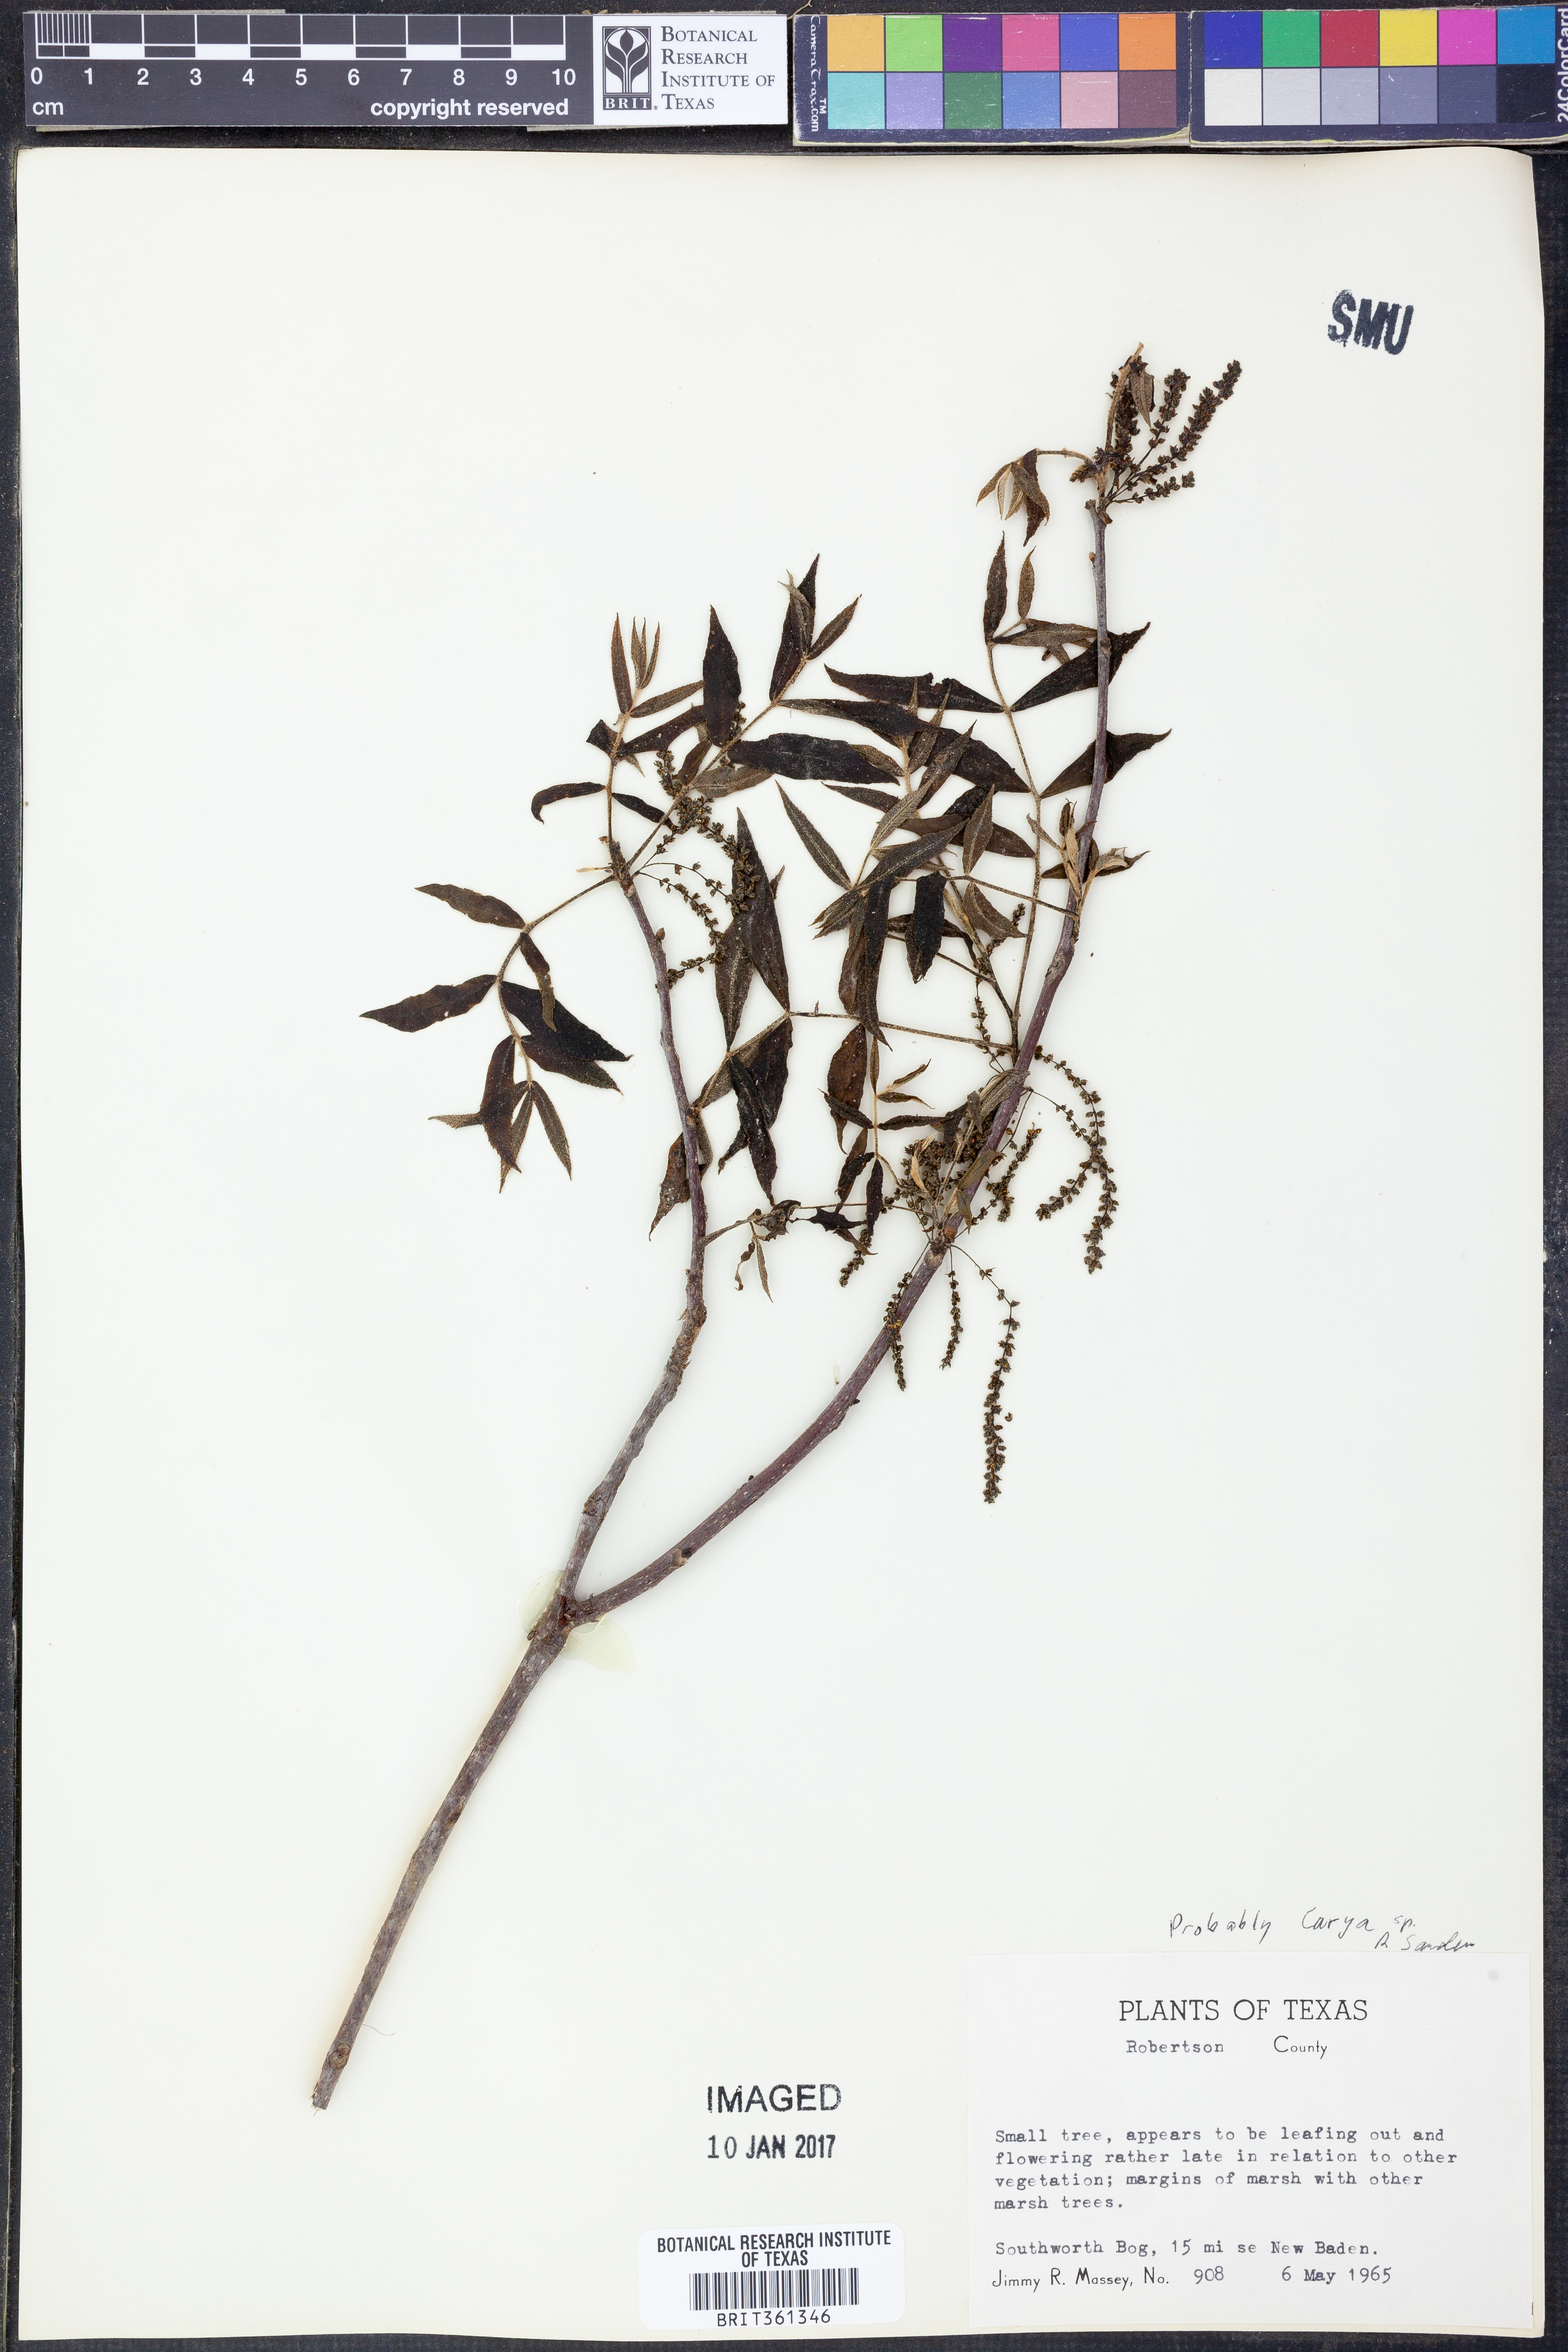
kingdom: Plantae
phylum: Tracheophyta
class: Magnoliopsida
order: Fagales
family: Juglandaceae
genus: Carya
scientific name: Carya
